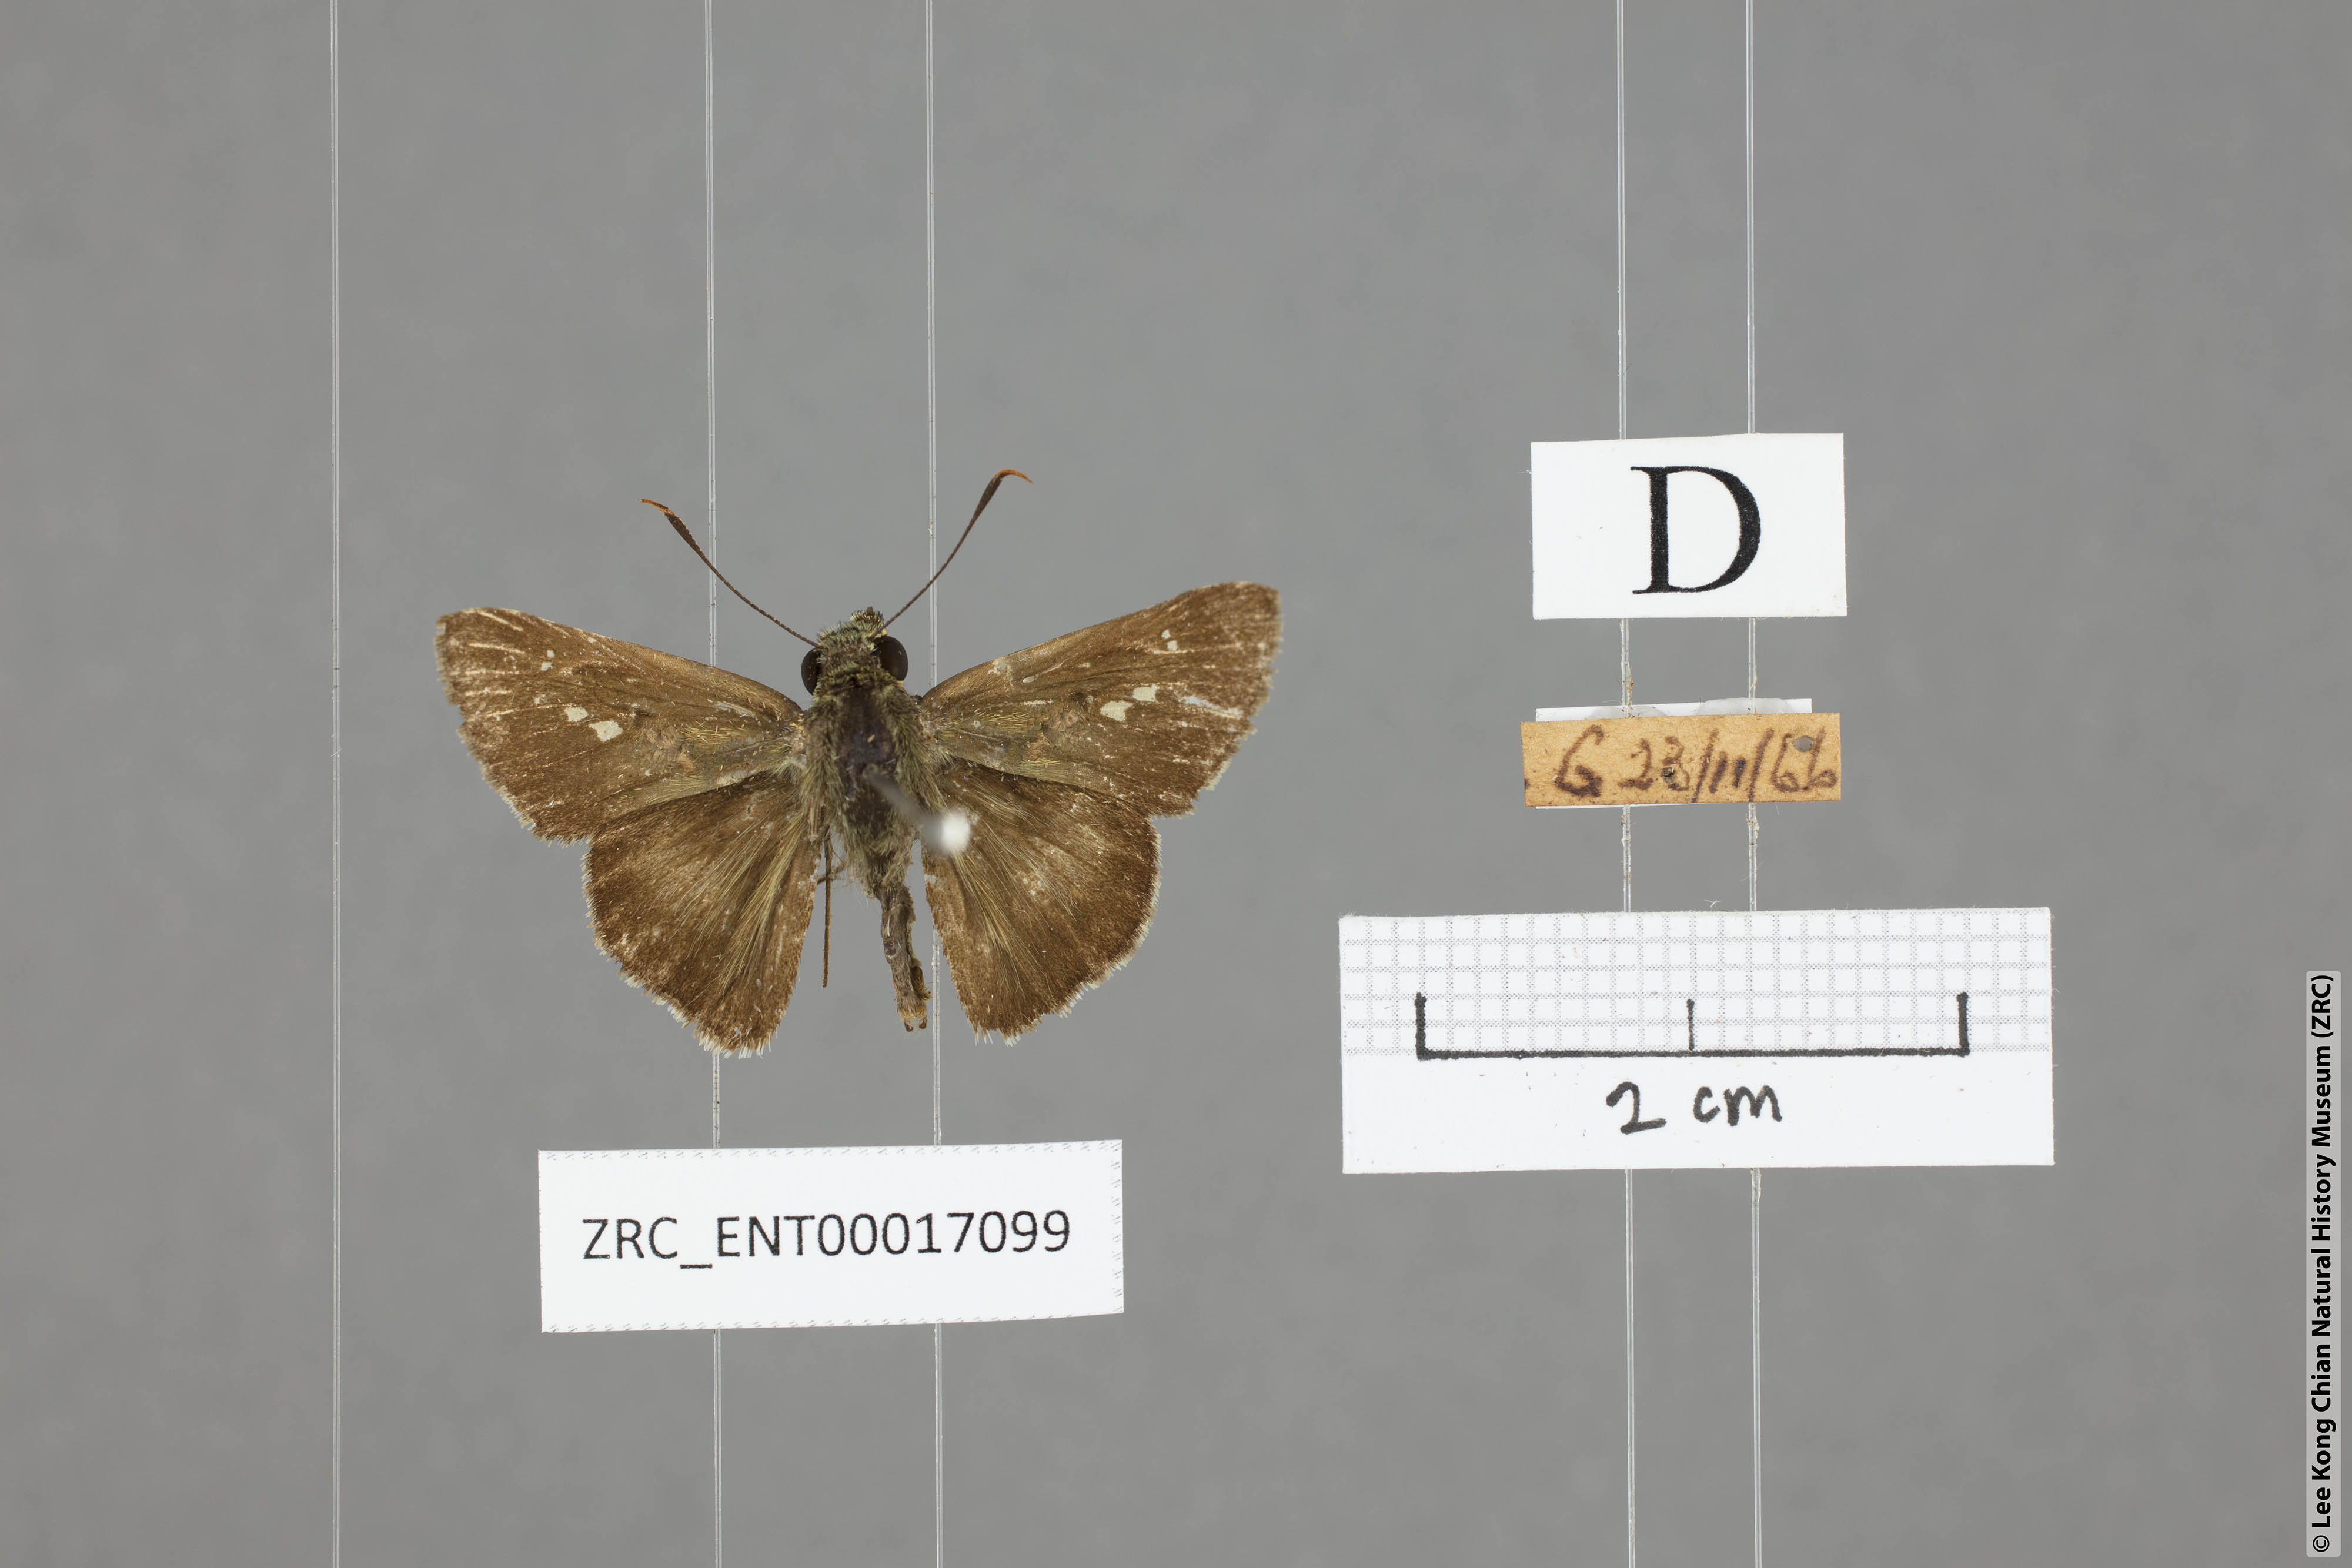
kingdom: Animalia
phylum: Arthropoda
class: Insecta
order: Lepidoptera
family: Hesperiidae
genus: Halpe
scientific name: Halpe zema
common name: Dark banded ace
